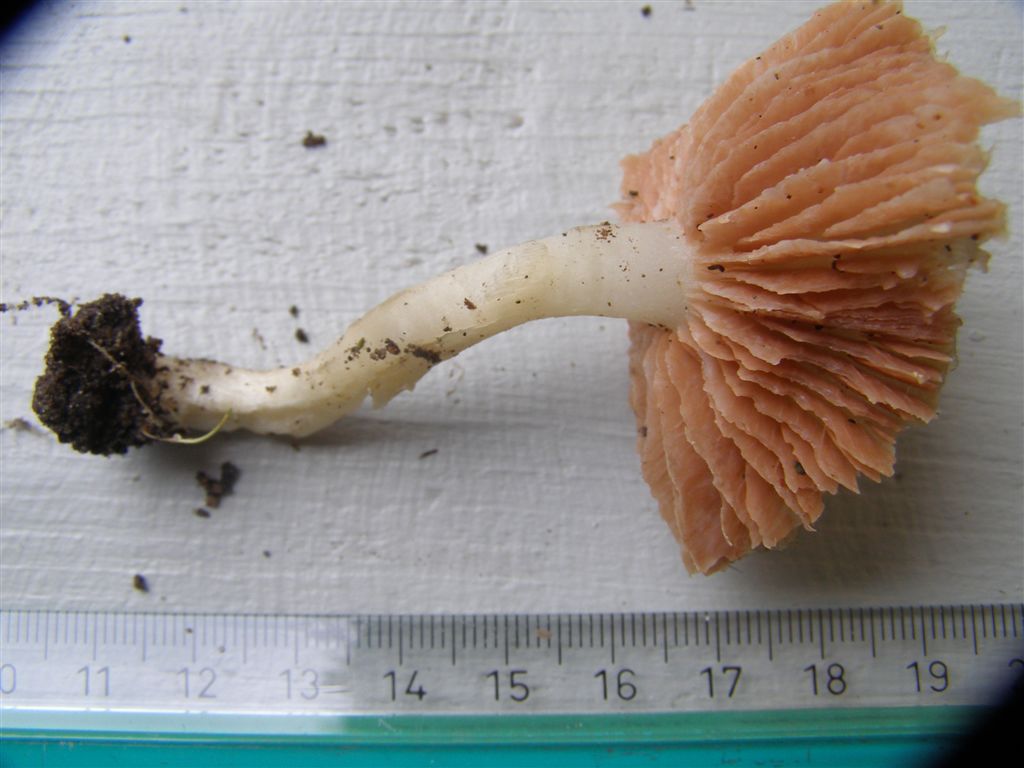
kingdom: Fungi
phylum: Basidiomycota
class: Agaricomycetes
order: Agaricales
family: Entolomataceae
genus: Entoloma
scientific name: Entoloma rhodopolium
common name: skov-rødblad
